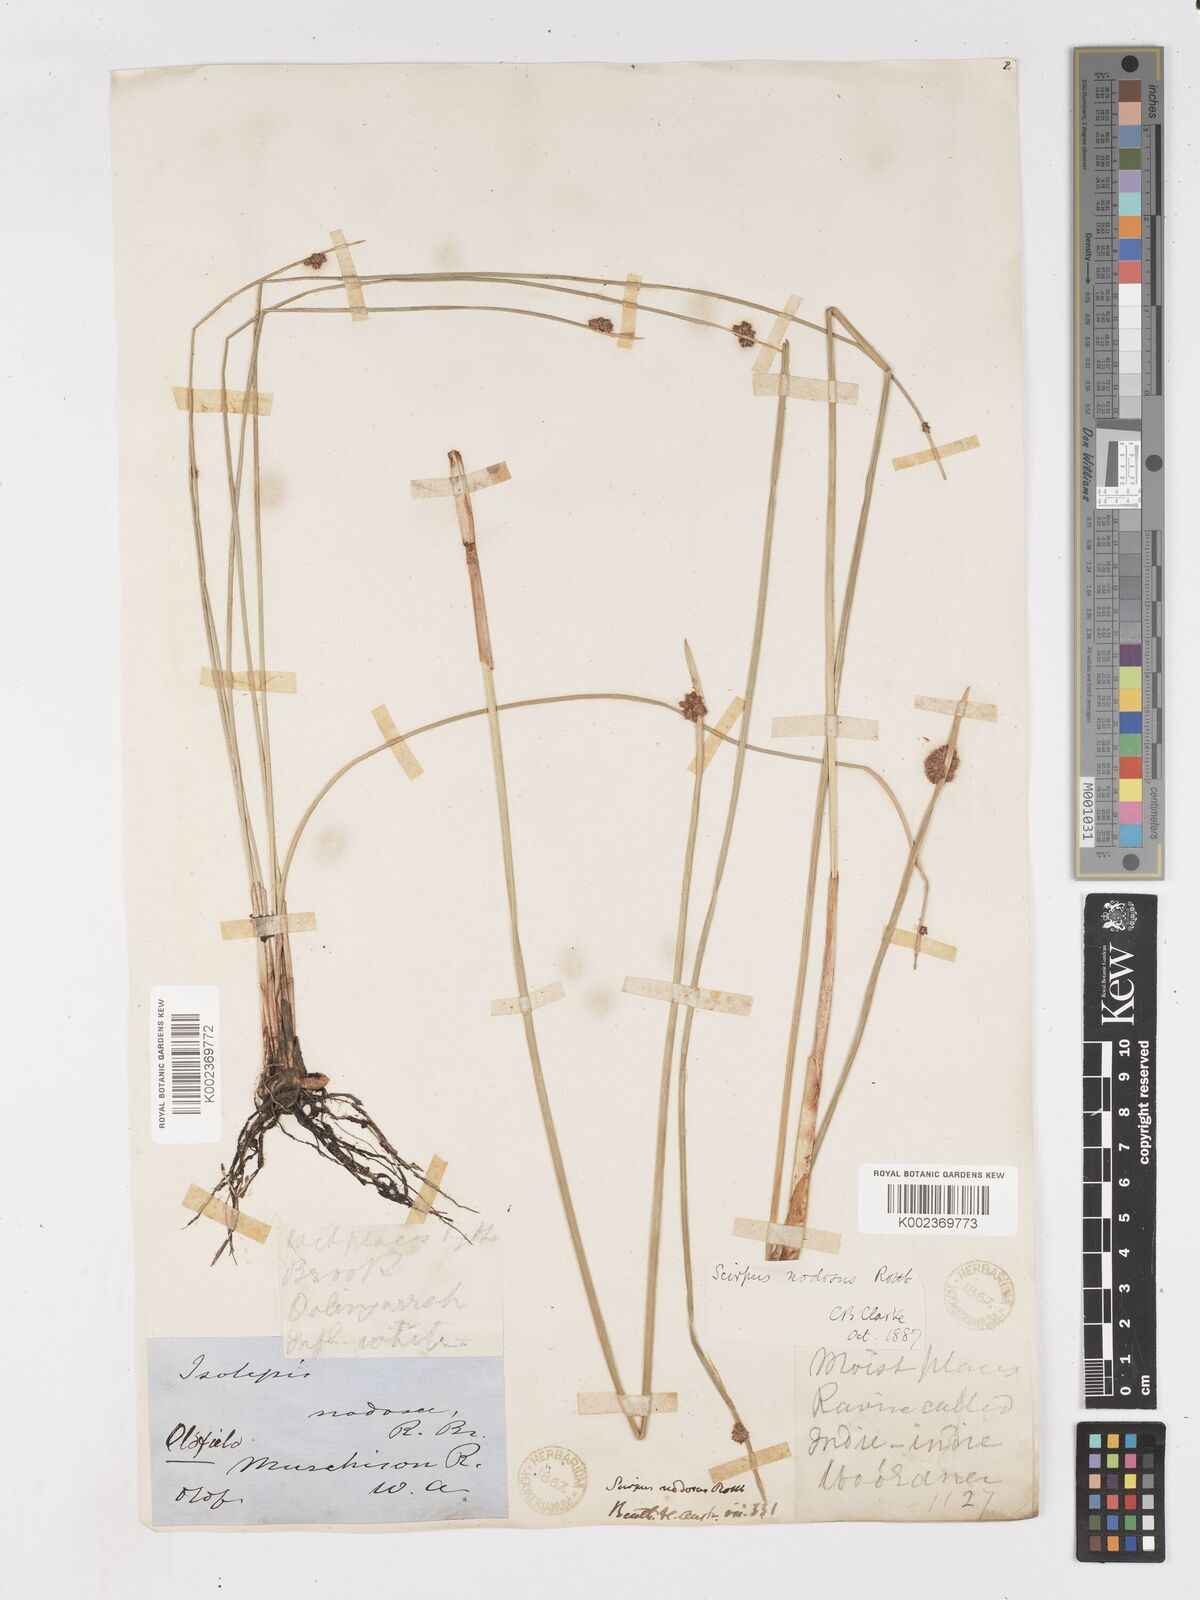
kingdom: Plantae
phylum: Tracheophyta
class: Liliopsida
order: Poales
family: Cyperaceae
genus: Ficinia
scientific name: Ficinia nodosa
